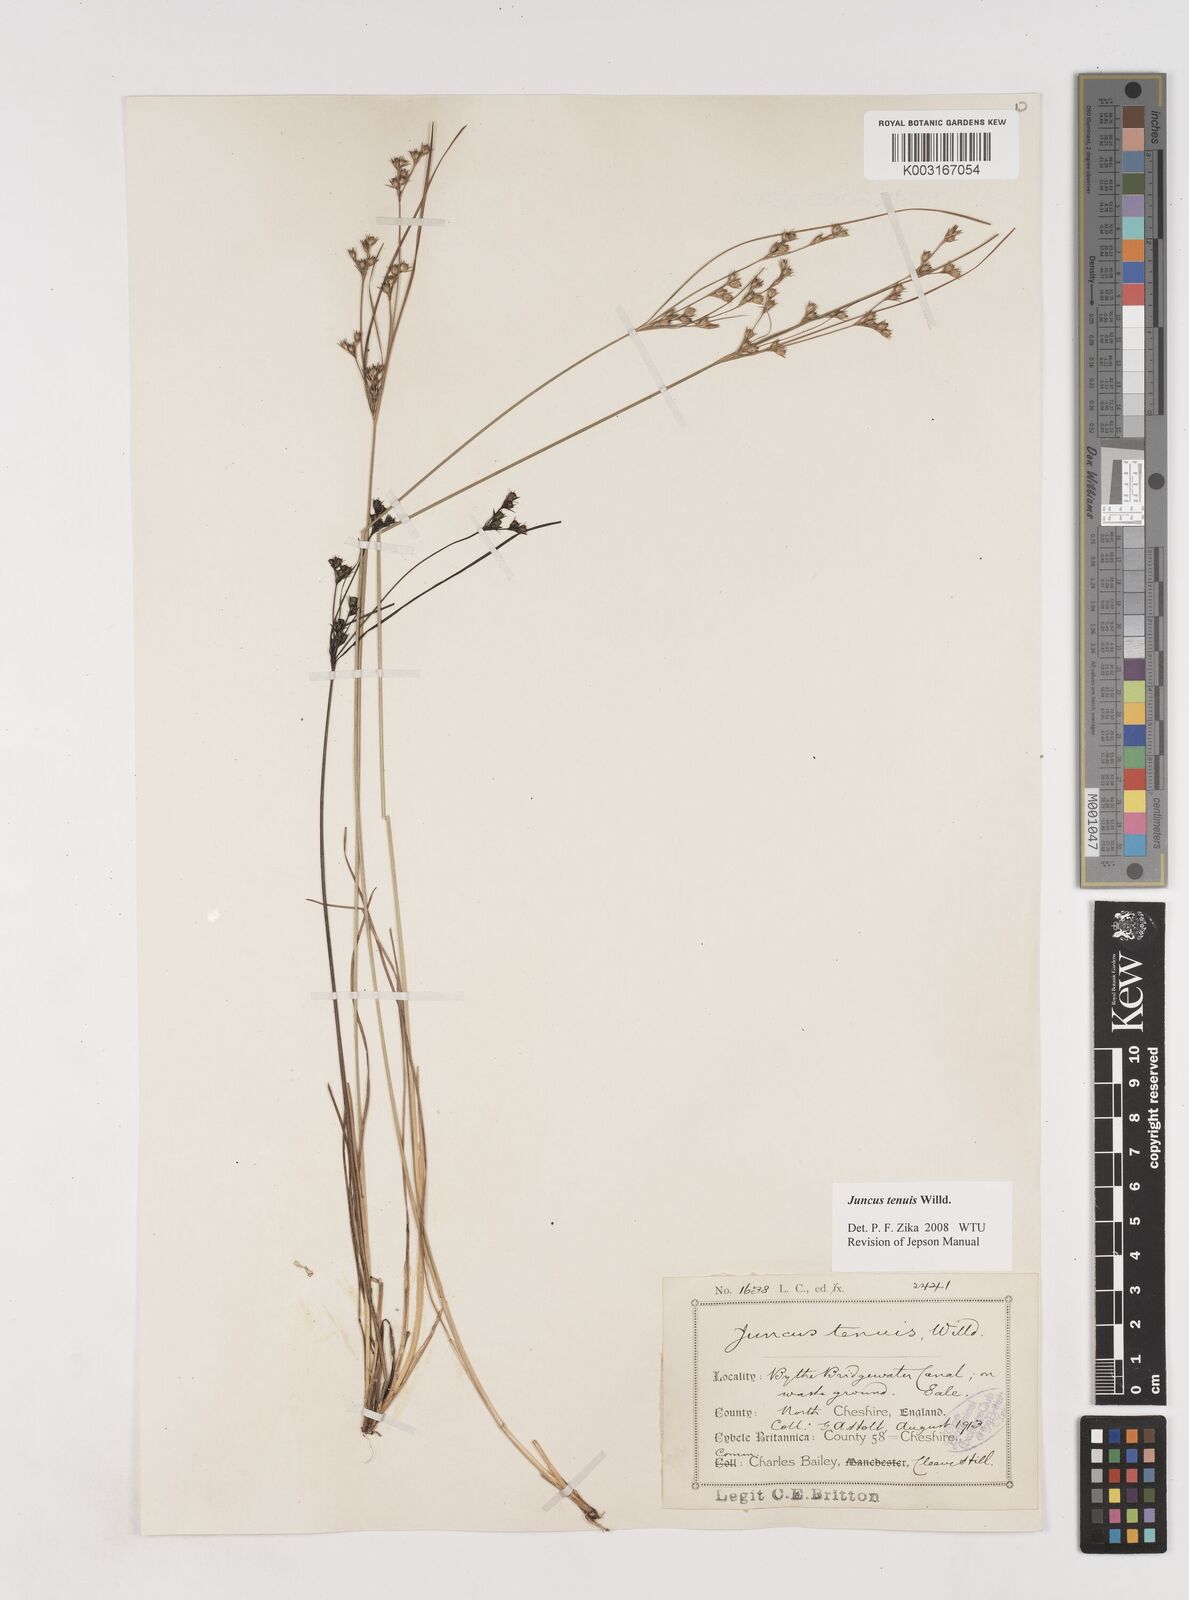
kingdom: Plantae
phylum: Tracheophyta
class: Liliopsida
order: Poales
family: Juncaceae
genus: Juncus
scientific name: Juncus tenuis
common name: Slender rush
